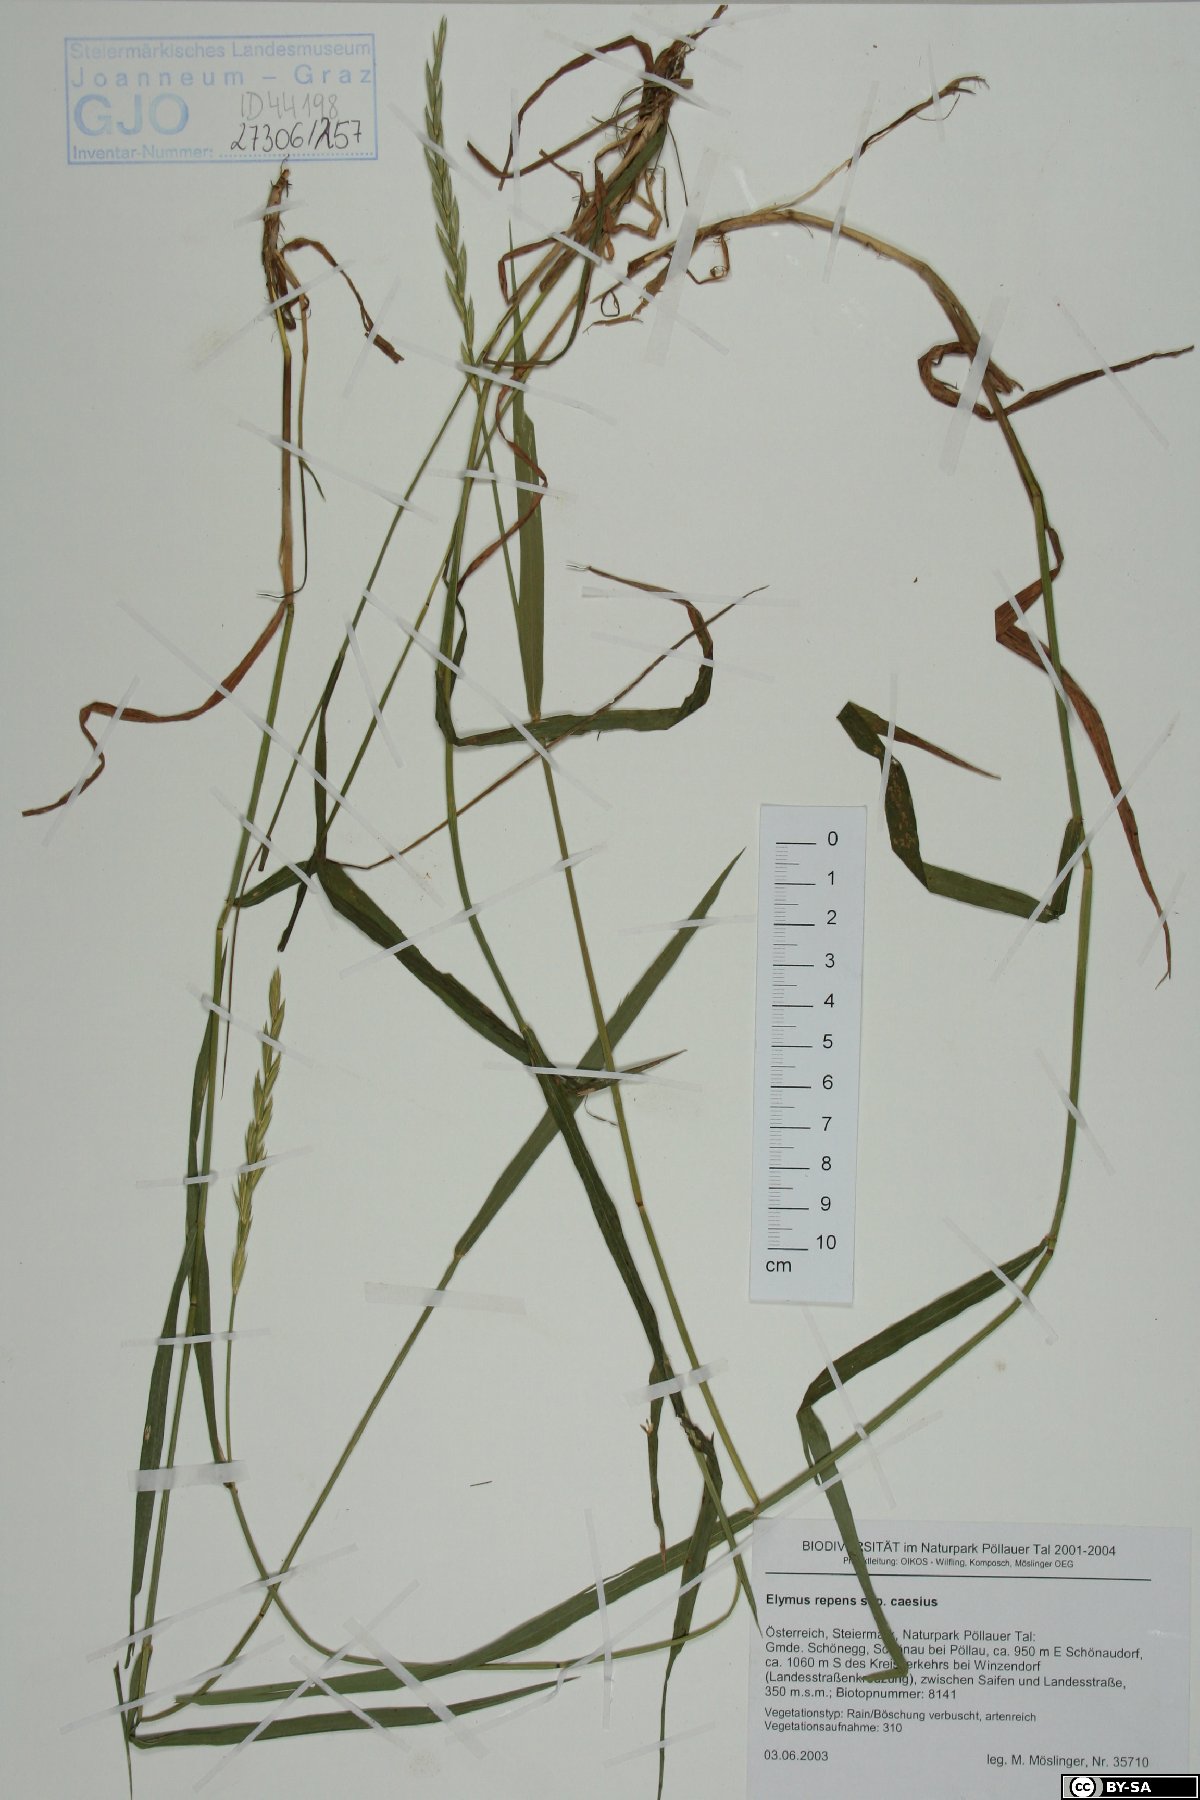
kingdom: Plantae
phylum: Tracheophyta
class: Liliopsida
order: Poales
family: Poaceae
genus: Elymus
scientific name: Elymus repens
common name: Quackgrass
